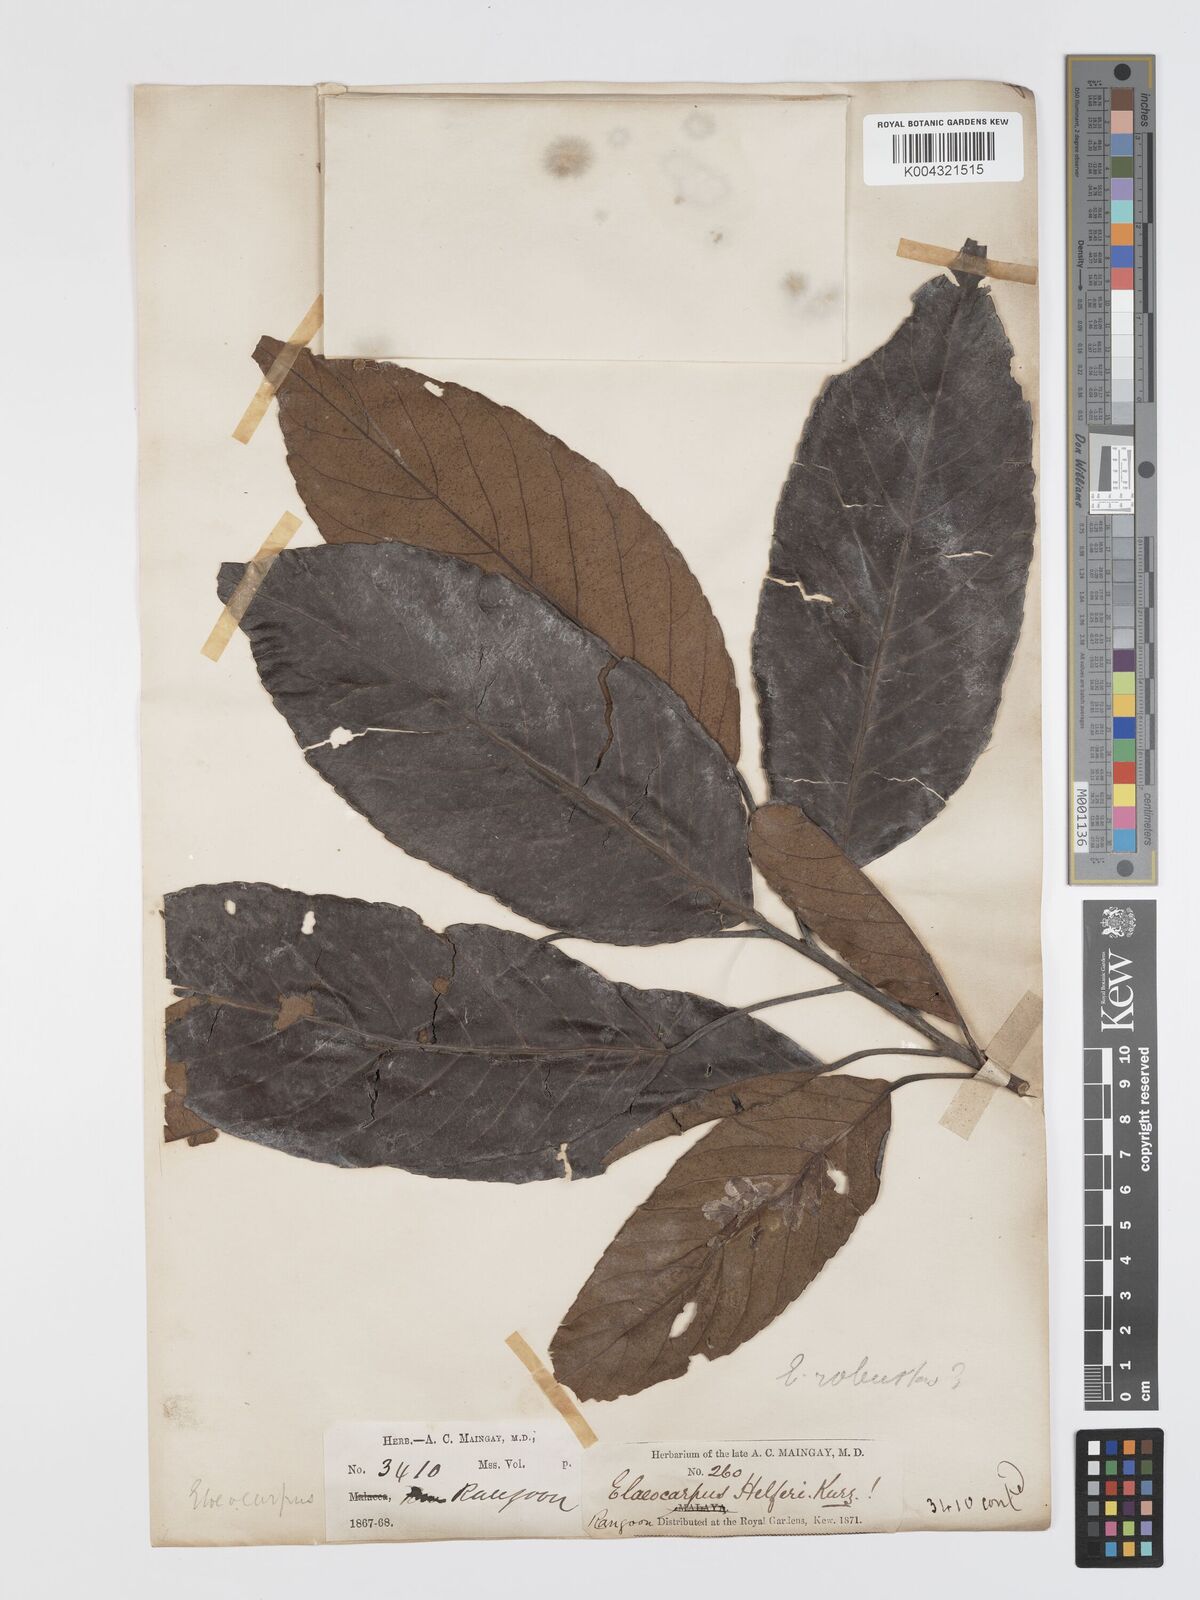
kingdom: Plantae
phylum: Tracheophyta
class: Magnoliopsida
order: Oxalidales
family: Elaeocarpaceae
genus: Elaeocarpus
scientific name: Elaeocarpus robustus
